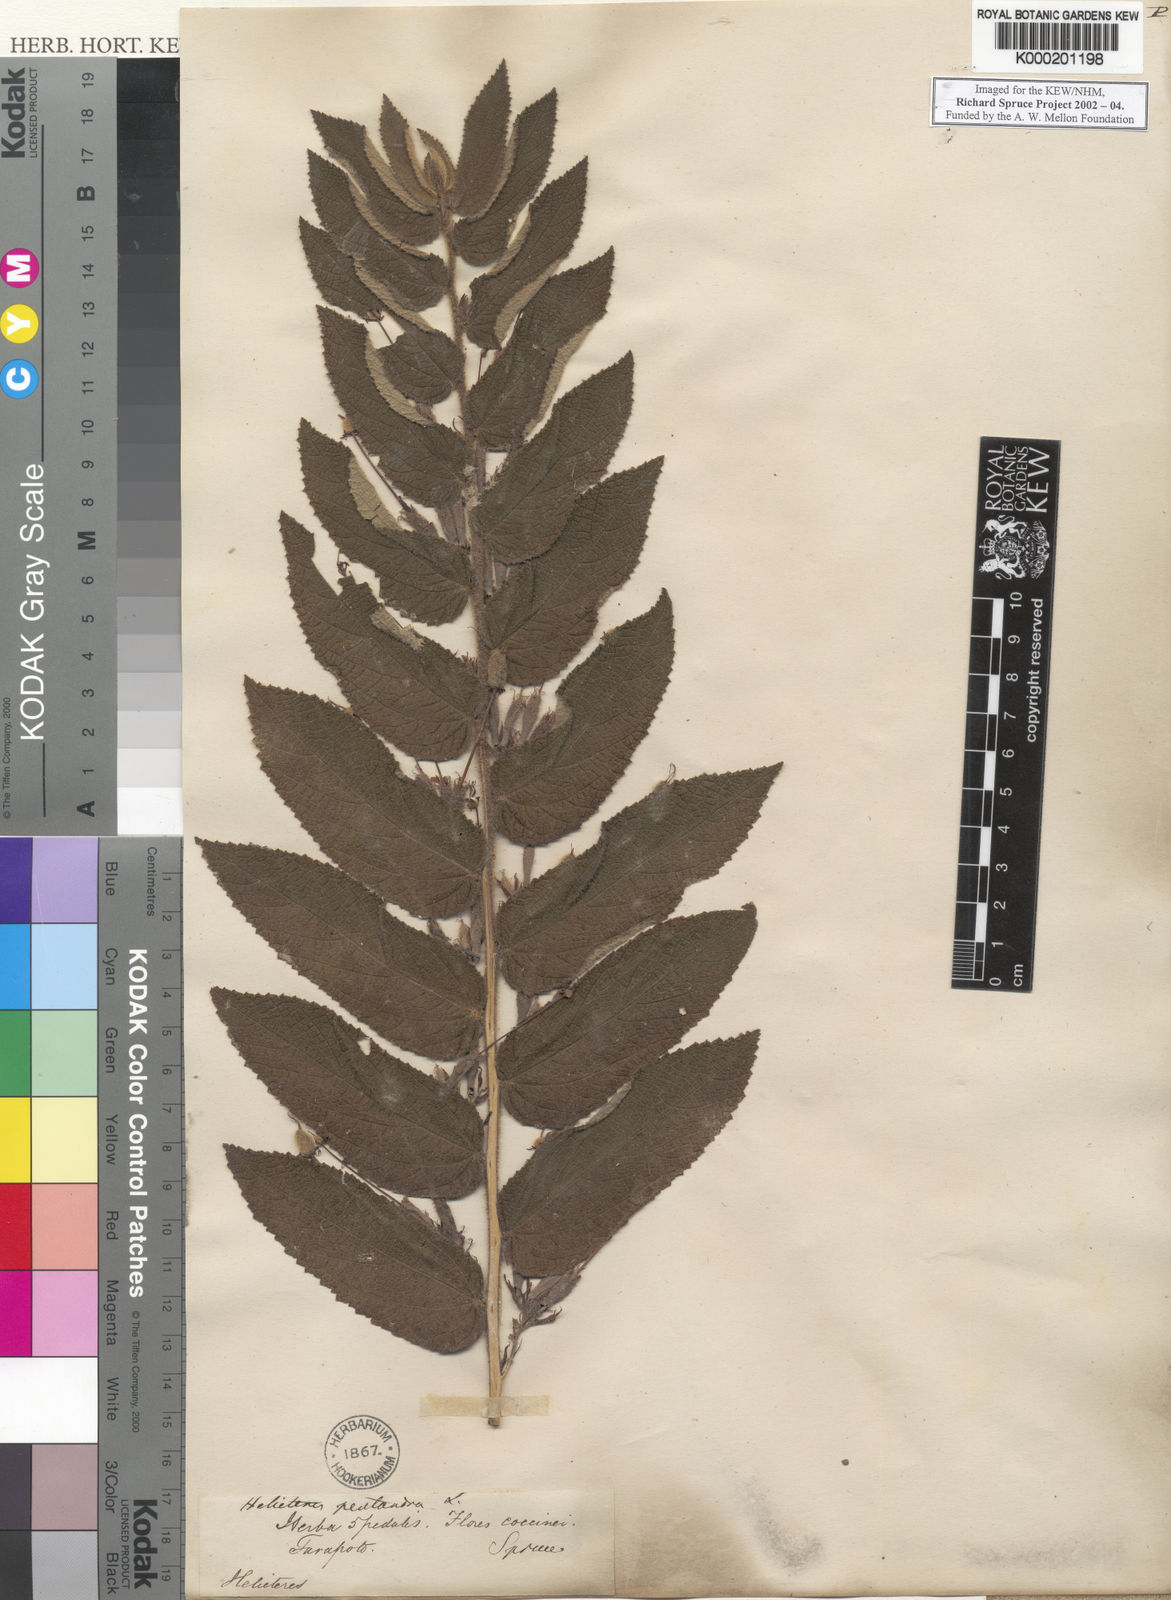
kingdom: Plantae
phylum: Tracheophyta
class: Magnoliopsida
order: Malvales
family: Malvaceae
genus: Helicteres
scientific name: Helicteres pentandra
